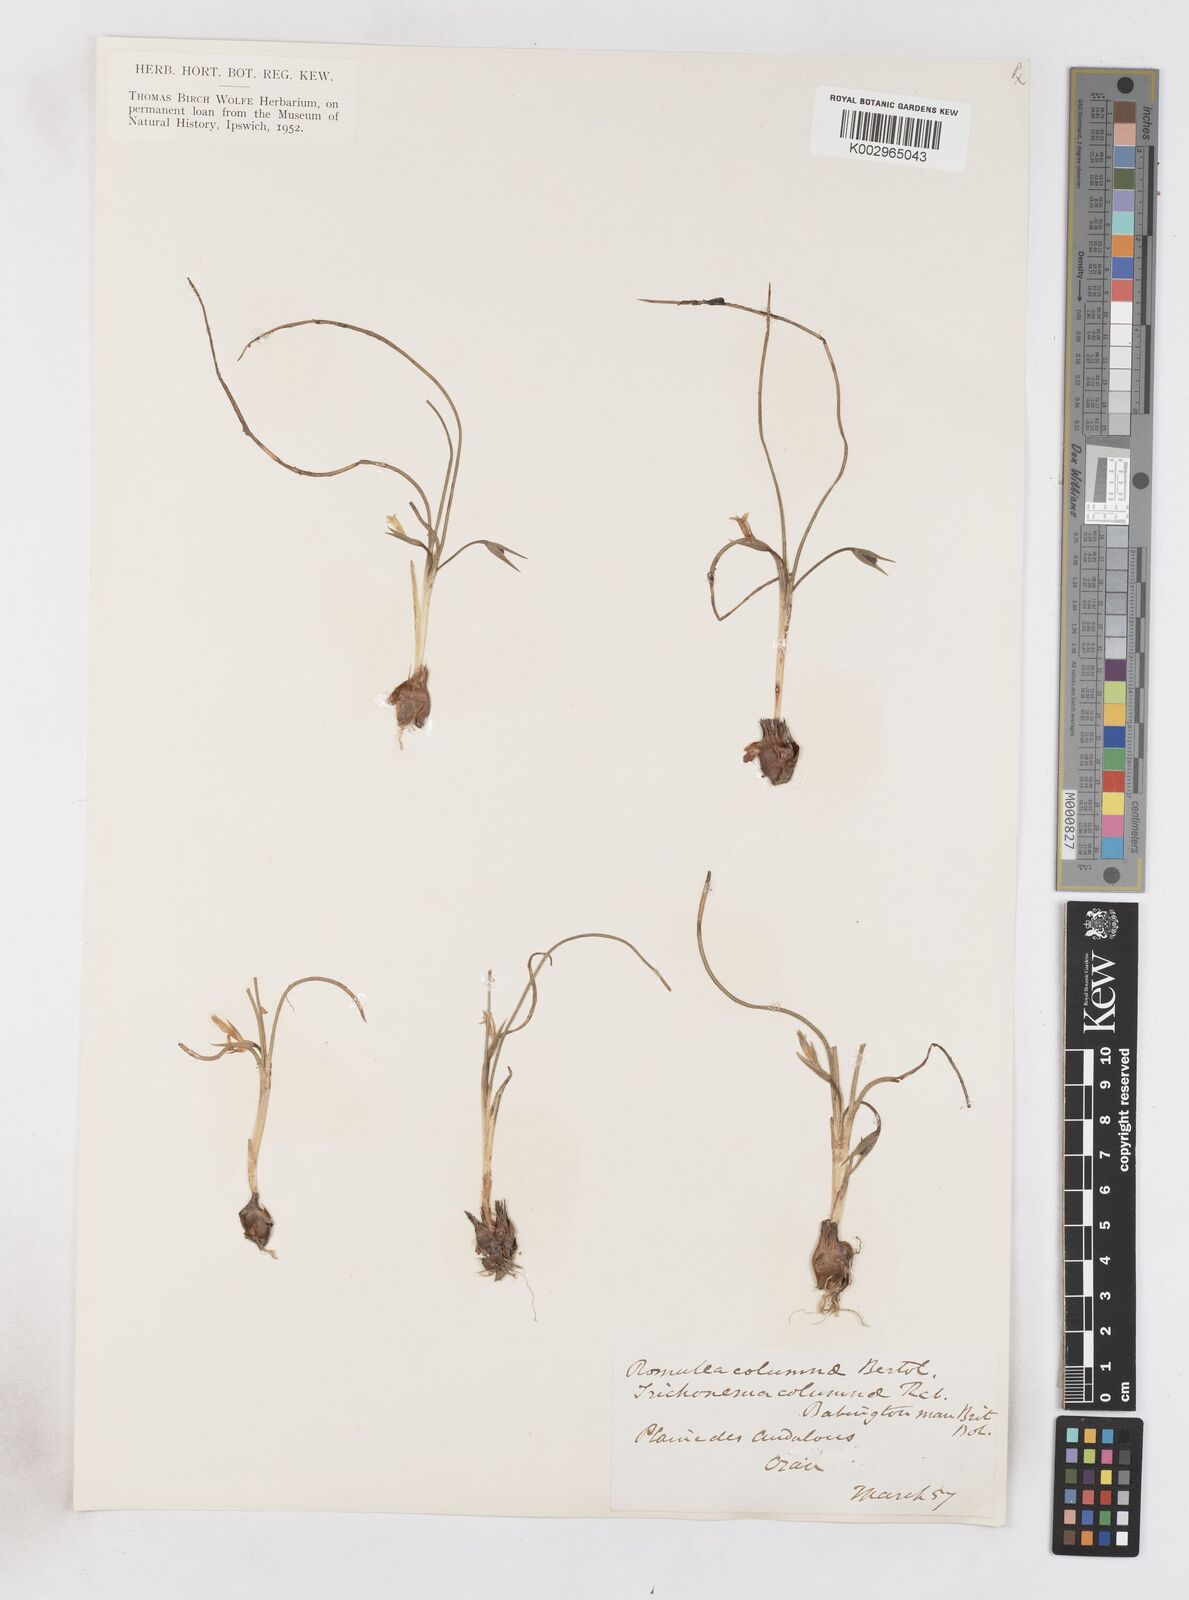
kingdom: Plantae
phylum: Tracheophyta
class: Liliopsida
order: Asparagales
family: Iridaceae
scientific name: Iridaceae
